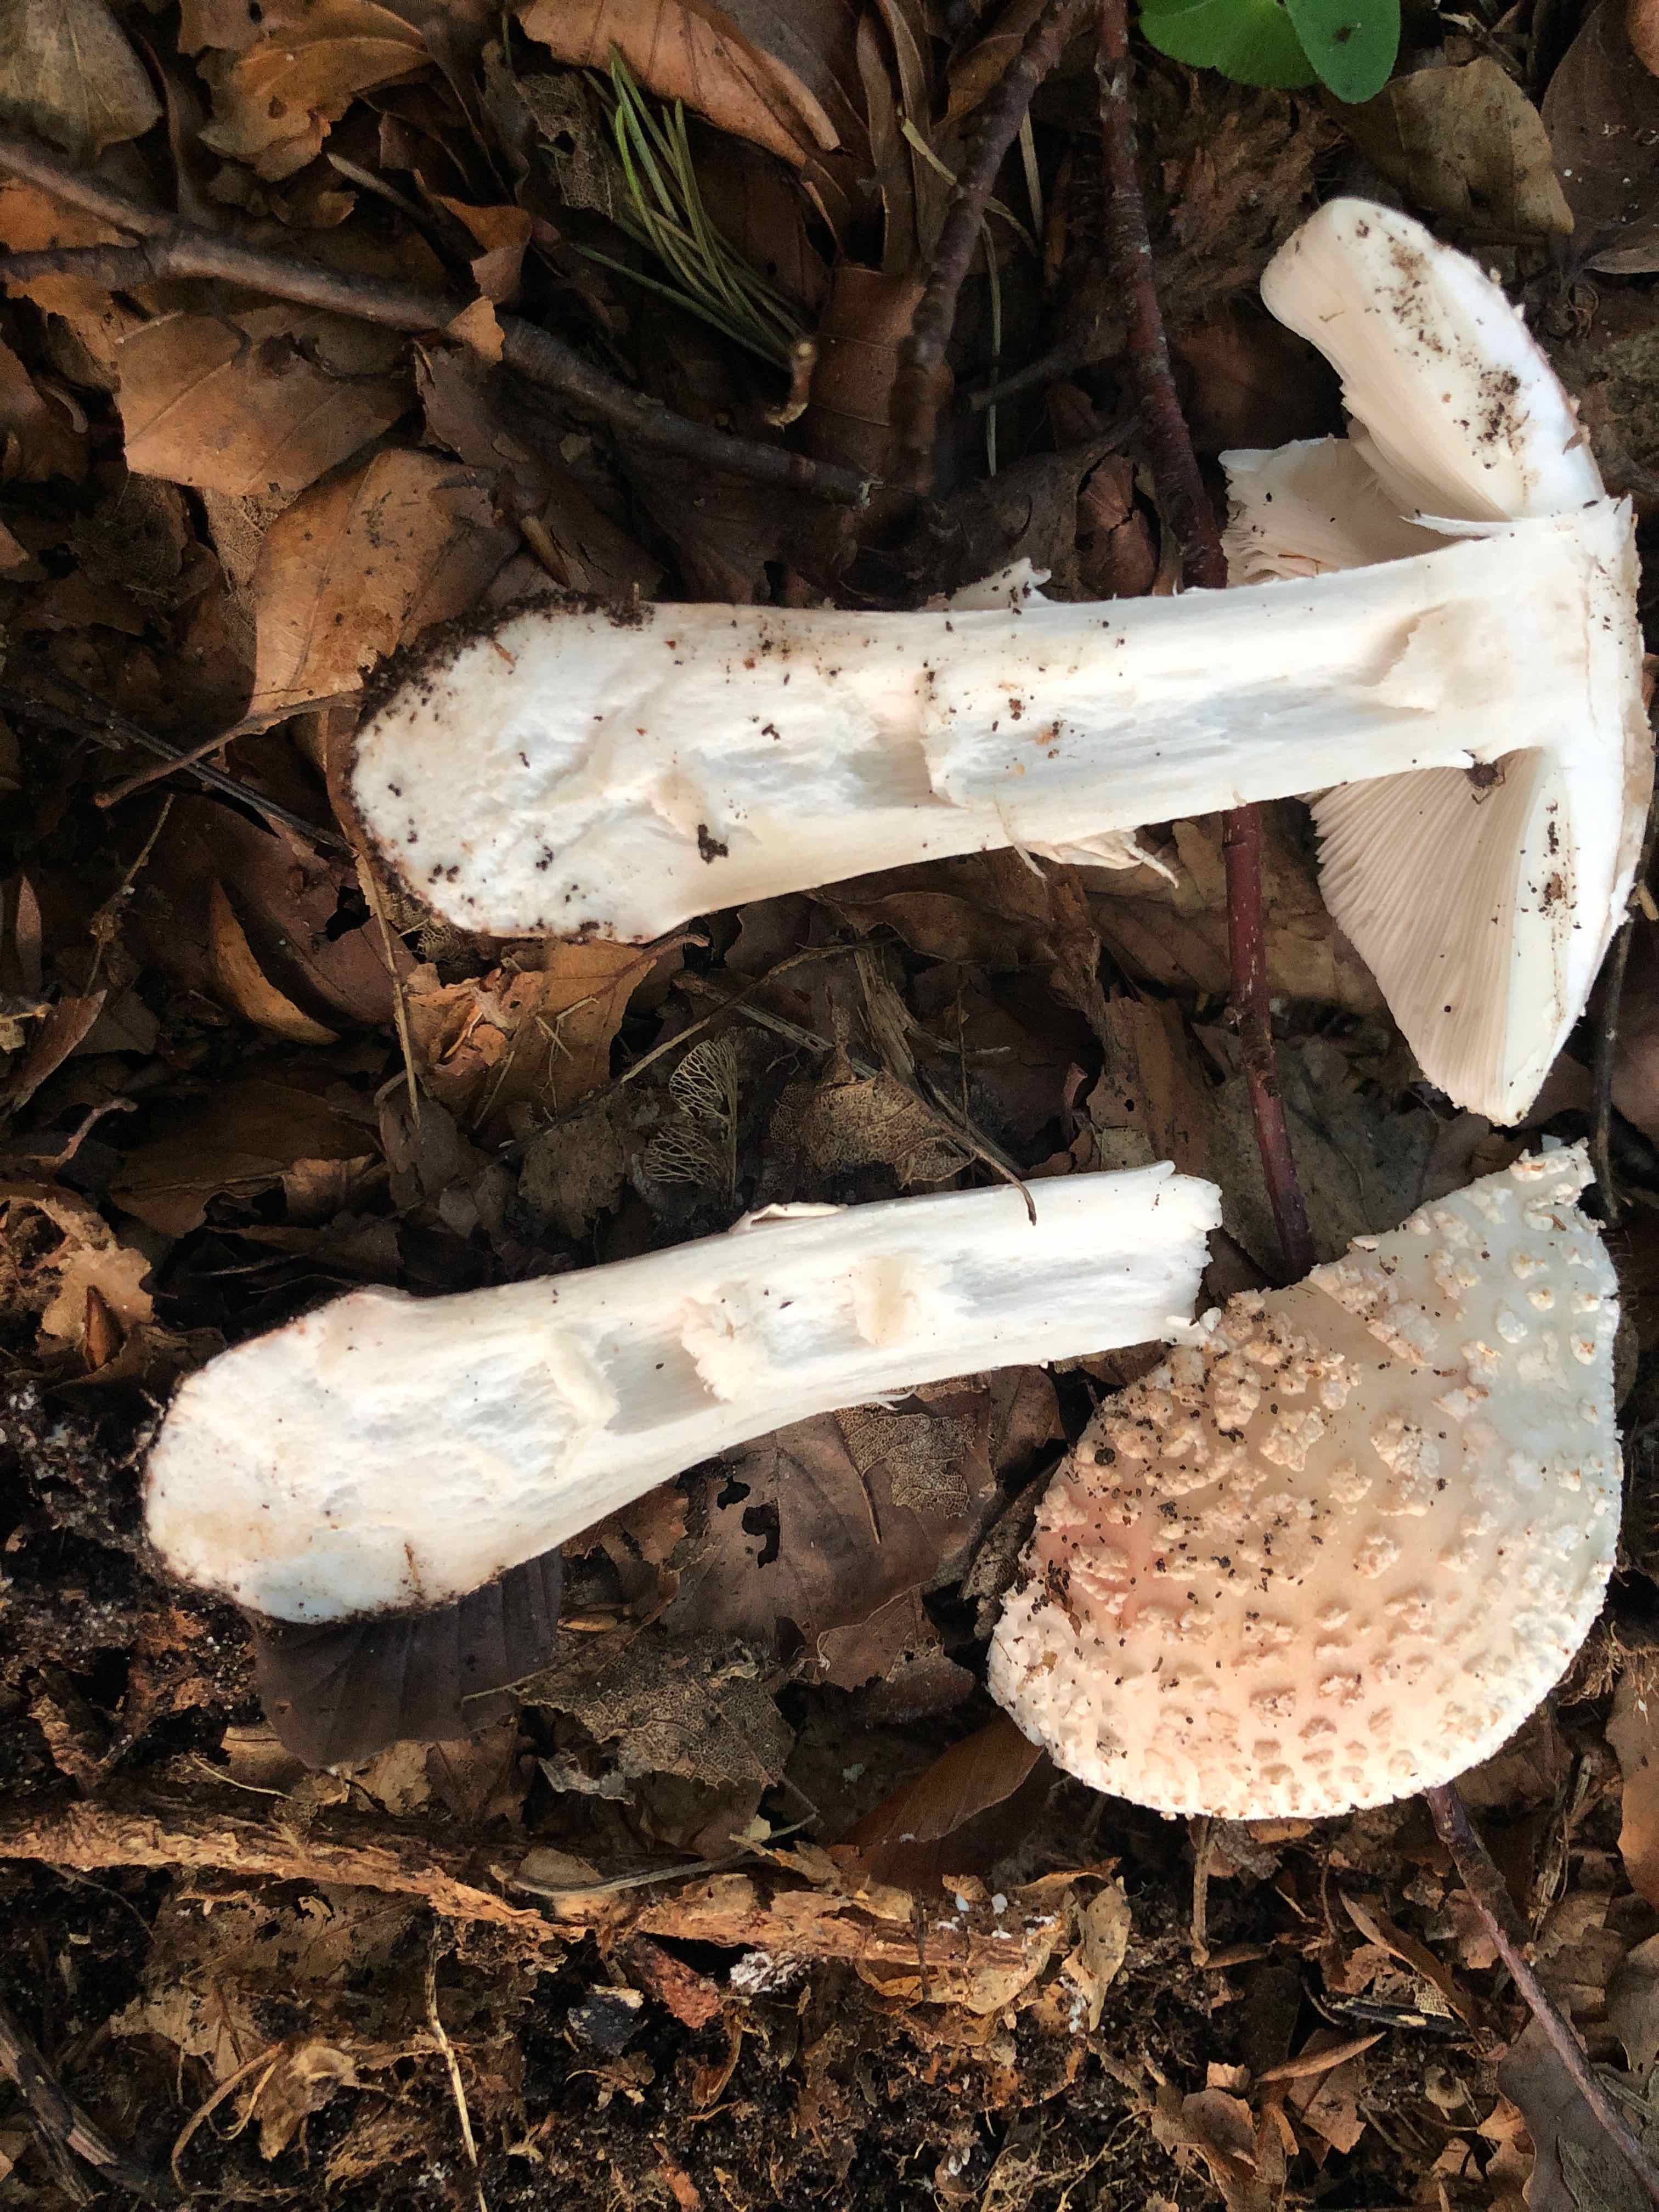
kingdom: Fungi
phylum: Basidiomycota
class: Agaricomycetes
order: Agaricales
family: Amanitaceae
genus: Amanita
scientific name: Amanita rubescens
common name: rødmende fluesvamp
